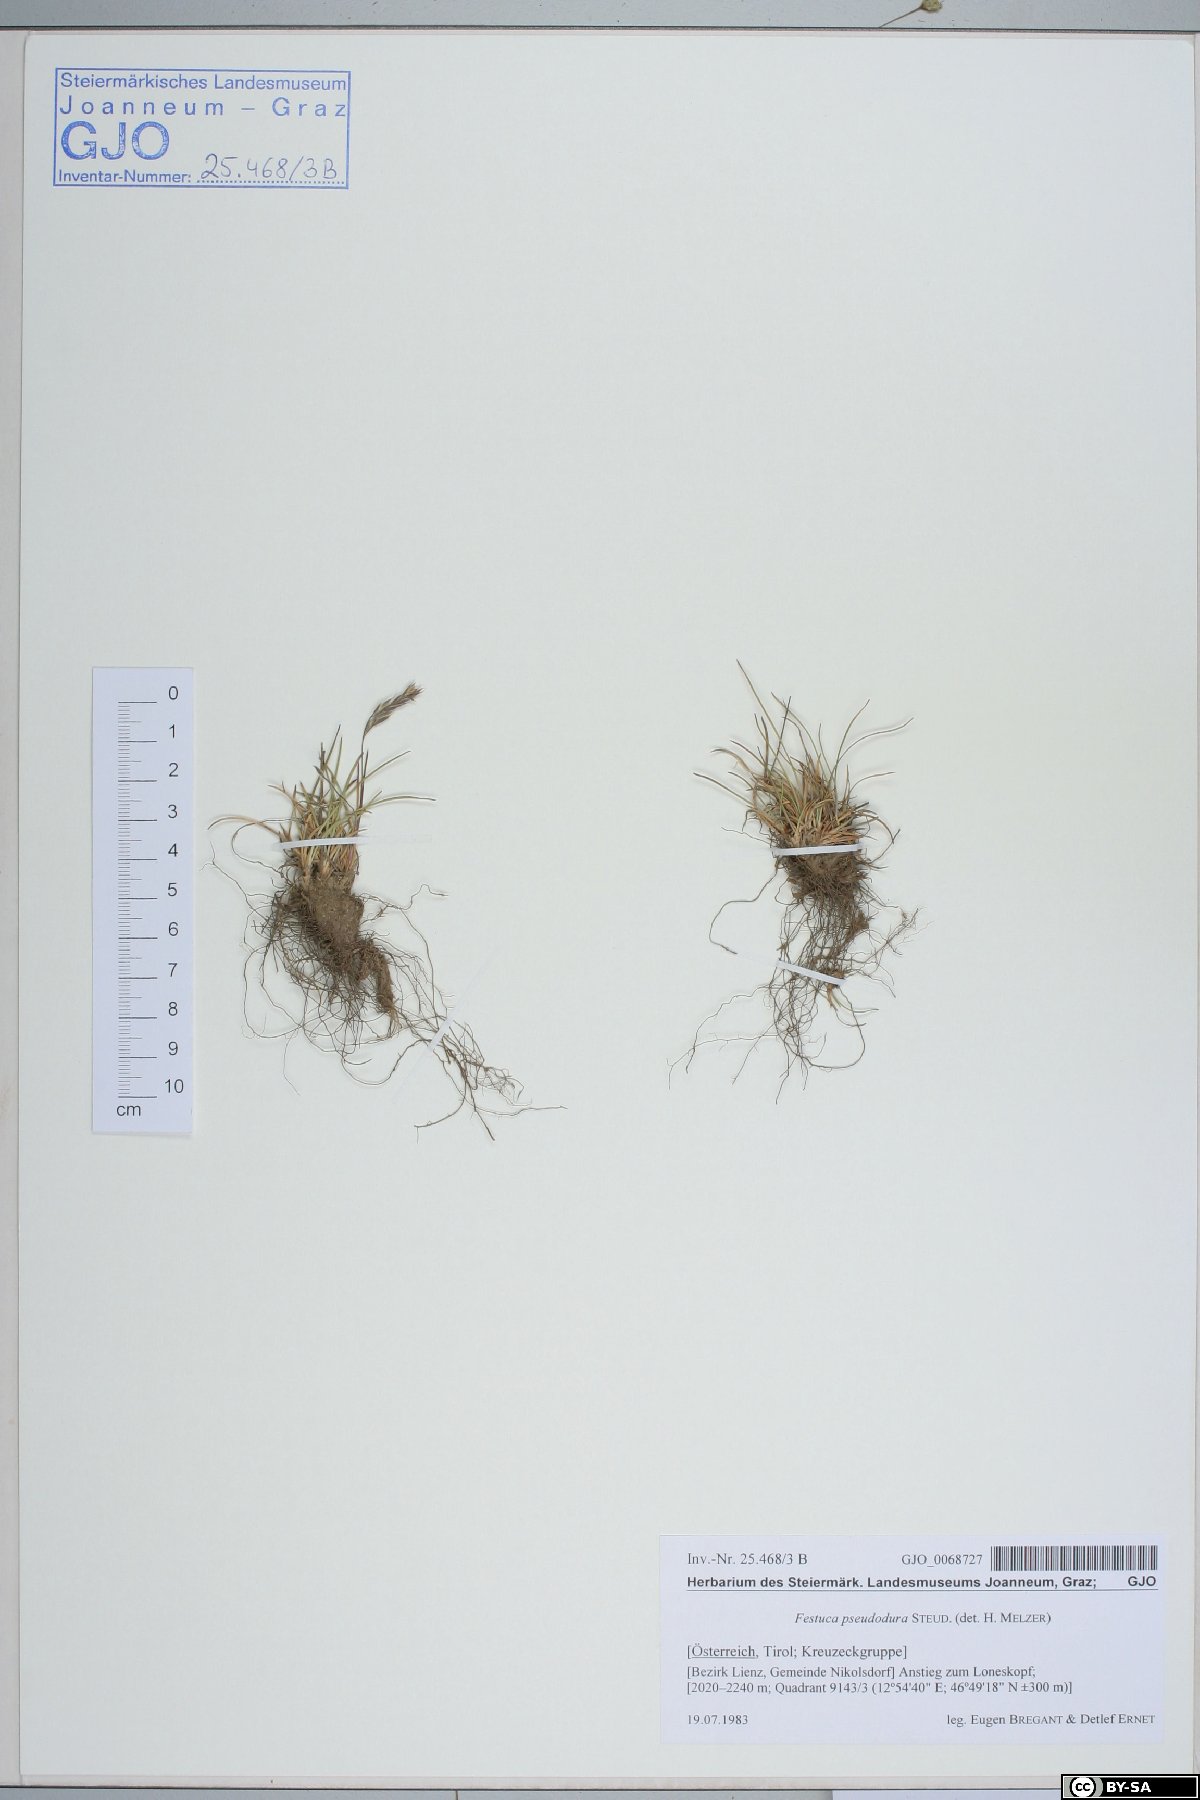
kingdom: Plantae
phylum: Tracheophyta
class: Liliopsida
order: Poales
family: Poaceae
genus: Festuca
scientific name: Festuca pseudodura
